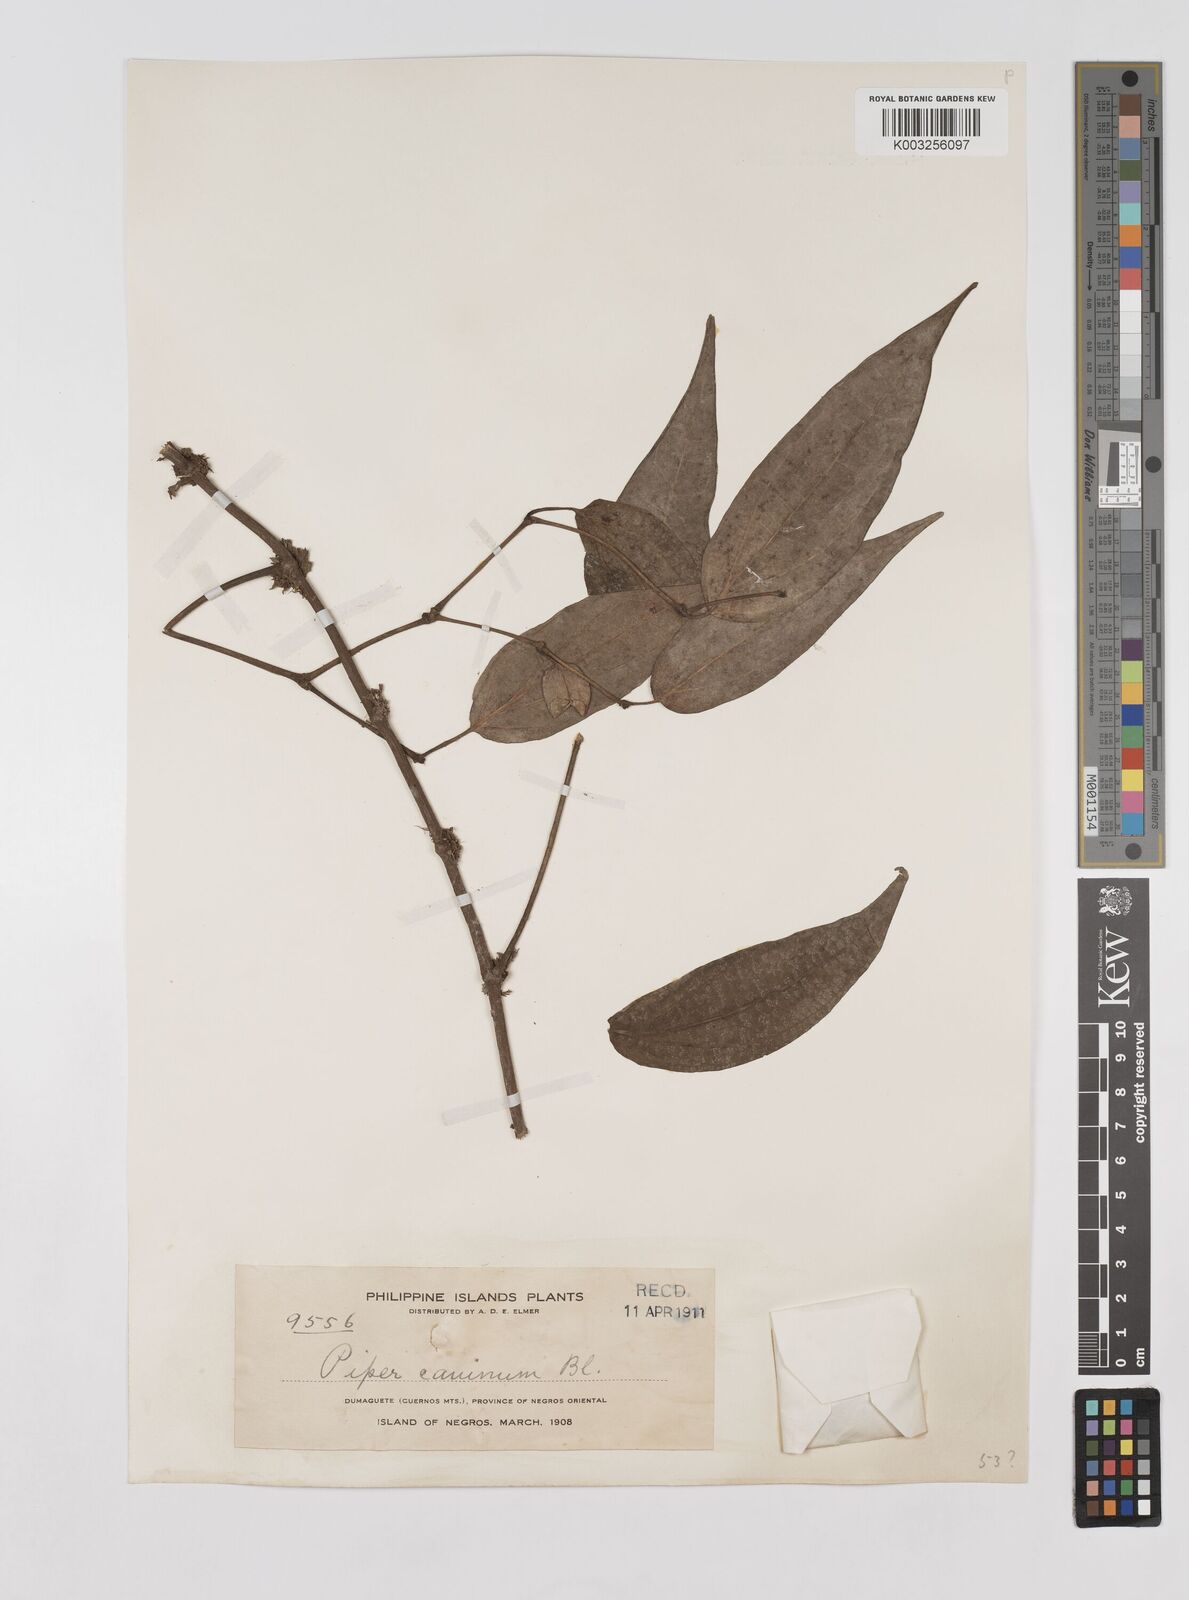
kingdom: Plantae
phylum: Tracheophyta
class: Magnoliopsida
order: Piperales
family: Piperaceae
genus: Piper
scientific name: Piper lanatum
